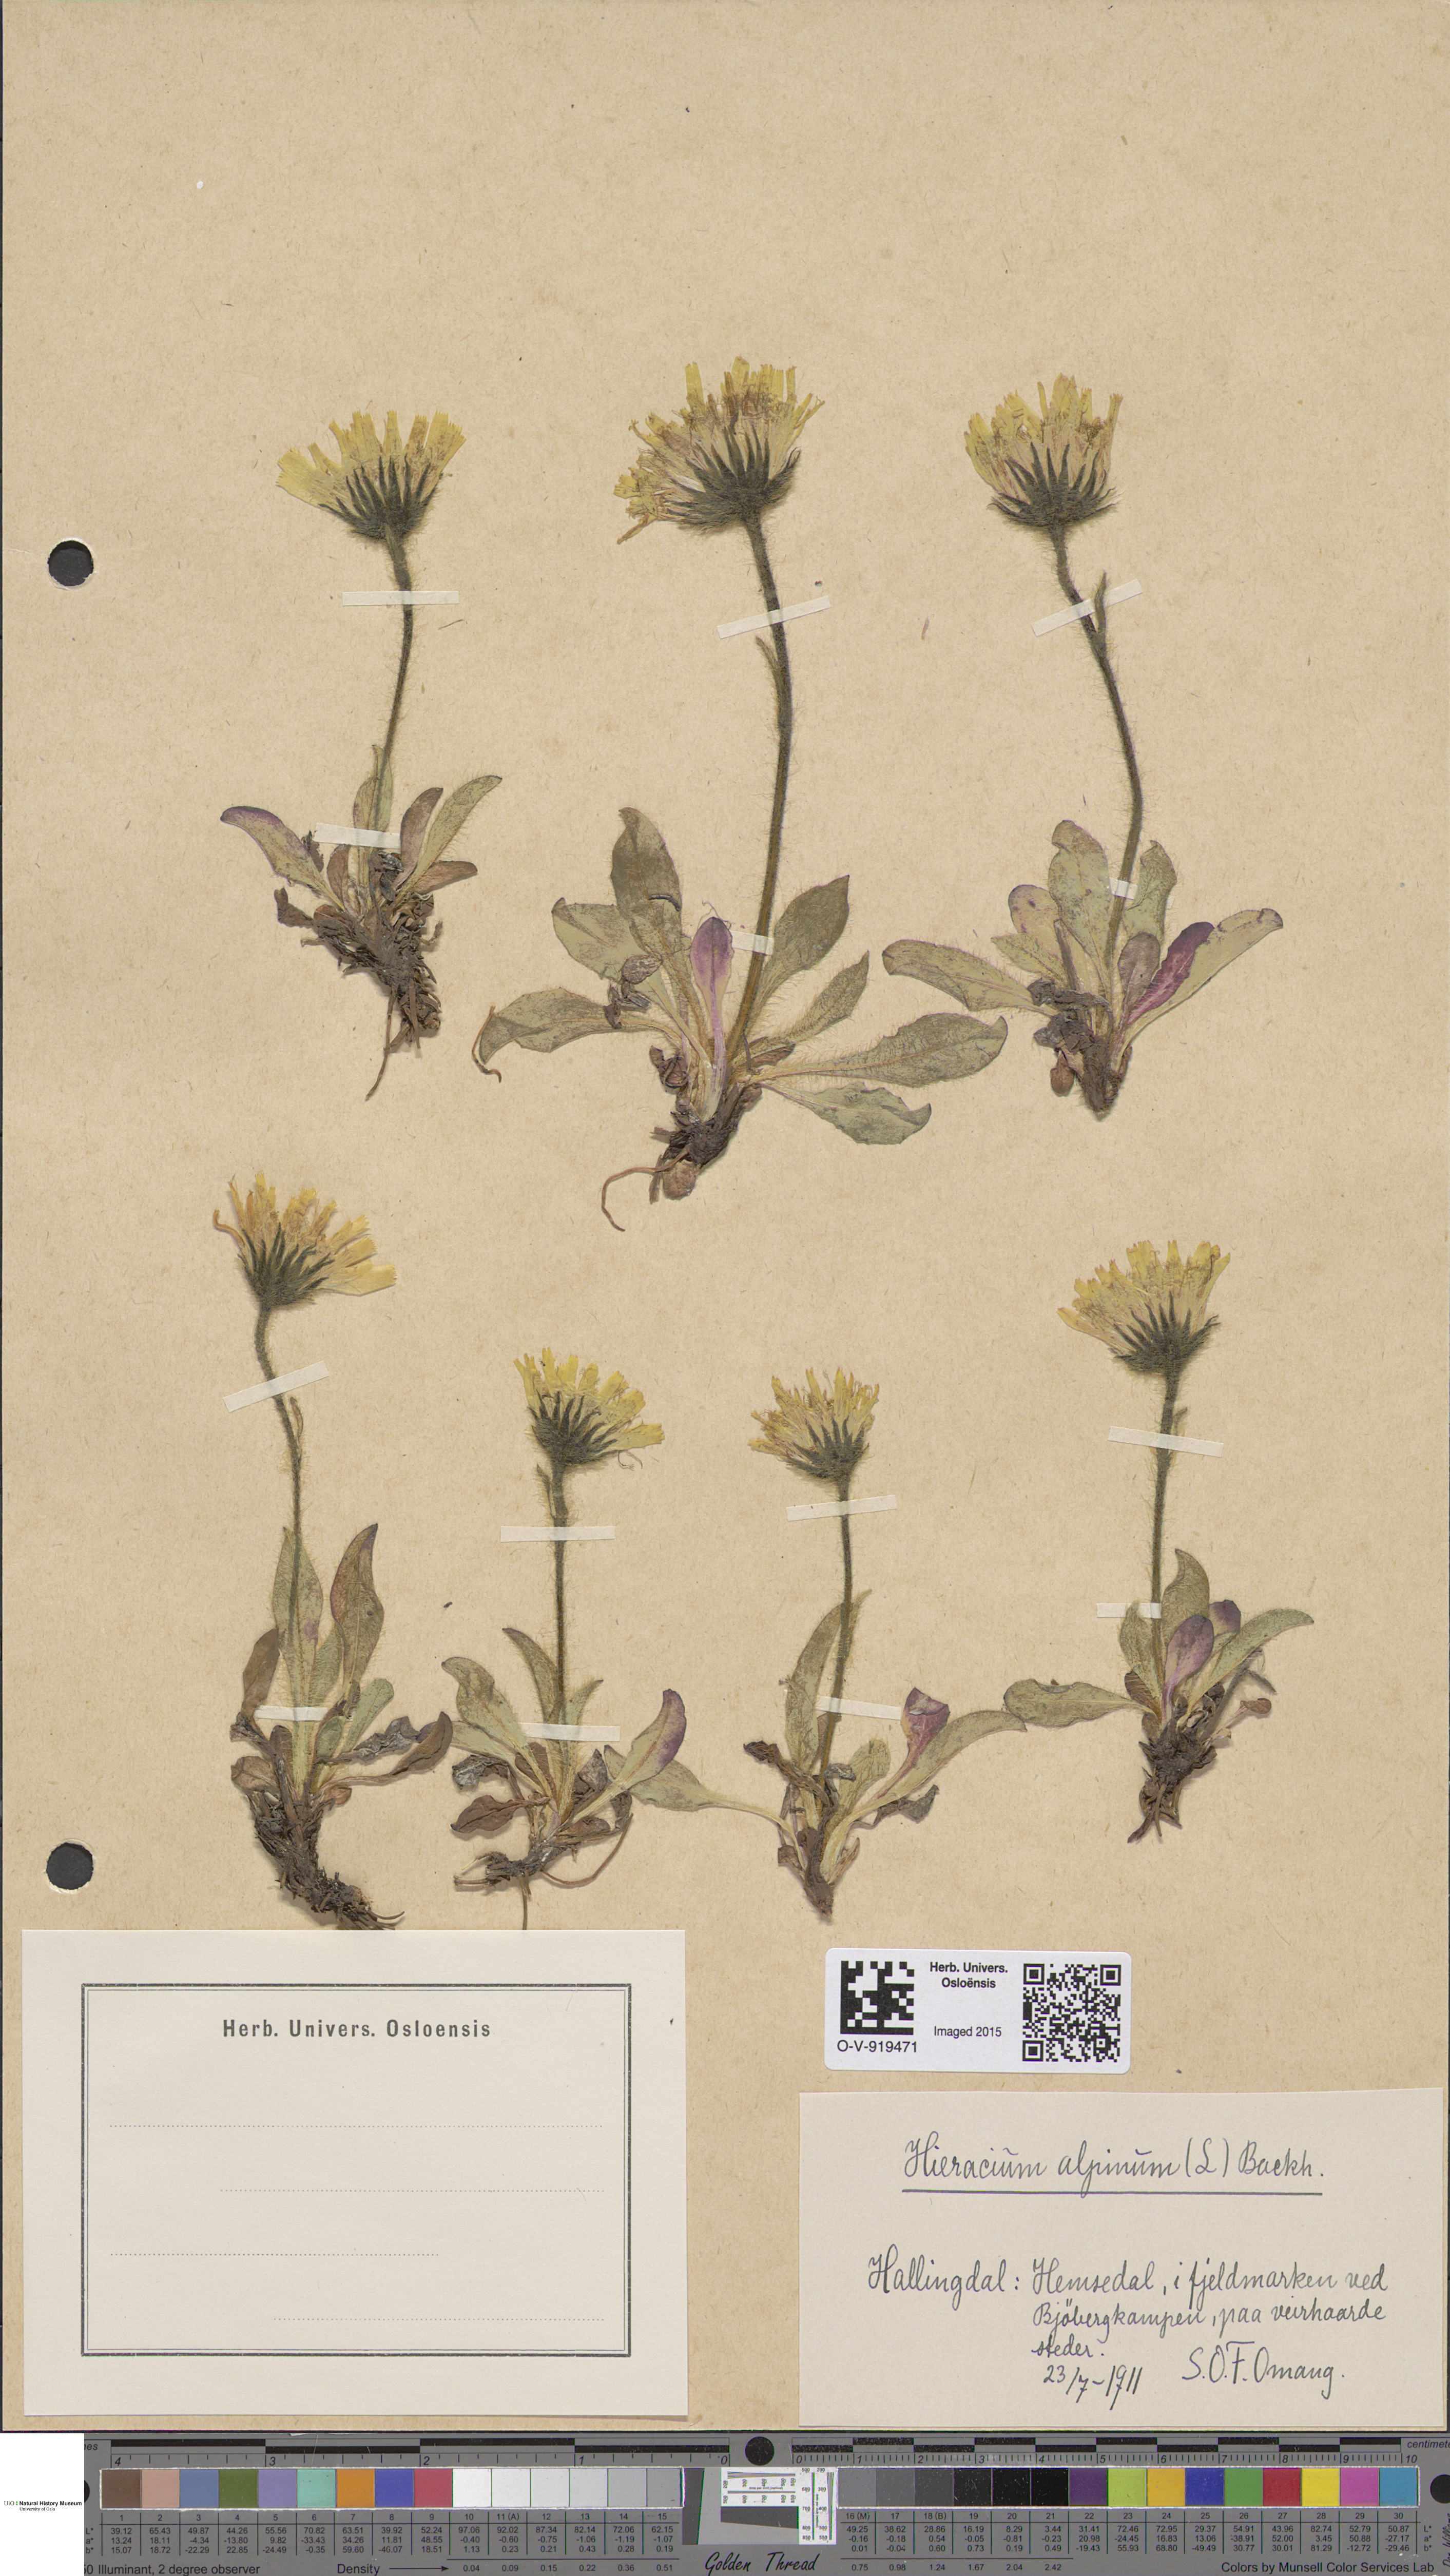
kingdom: Plantae
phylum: Tracheophyta
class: Magnoliopsida
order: Asterales
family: Asteraceae
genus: Hieracium
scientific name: Hieracium alpinum
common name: Alpine hawkweed
